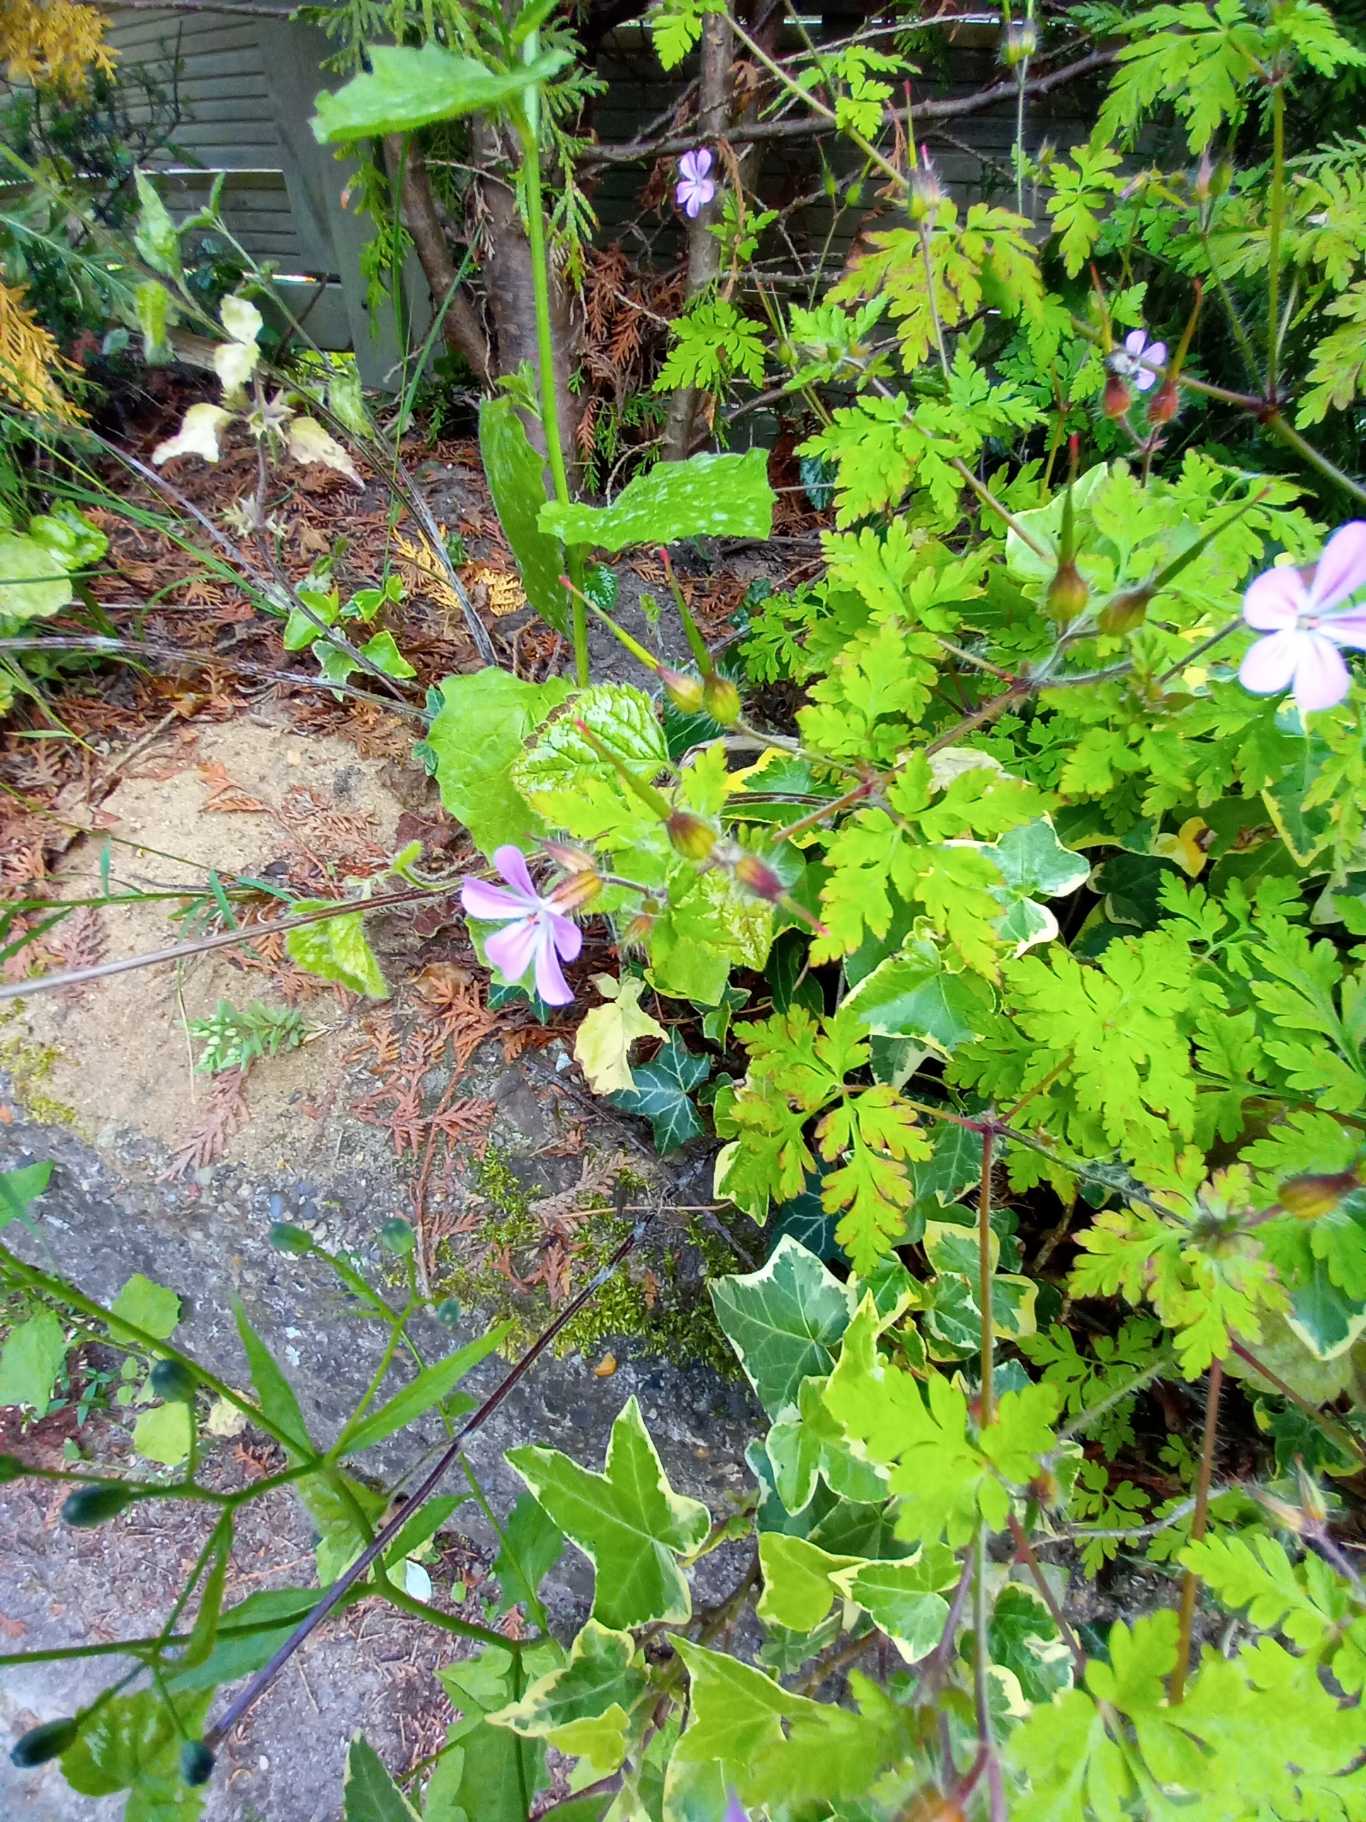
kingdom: Plantae
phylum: Tracheophyta
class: Magnoliopsida
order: Geraniales
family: Geraniaceae
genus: Geranium
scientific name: Geranium robertianum
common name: Stinkende storkenæb
